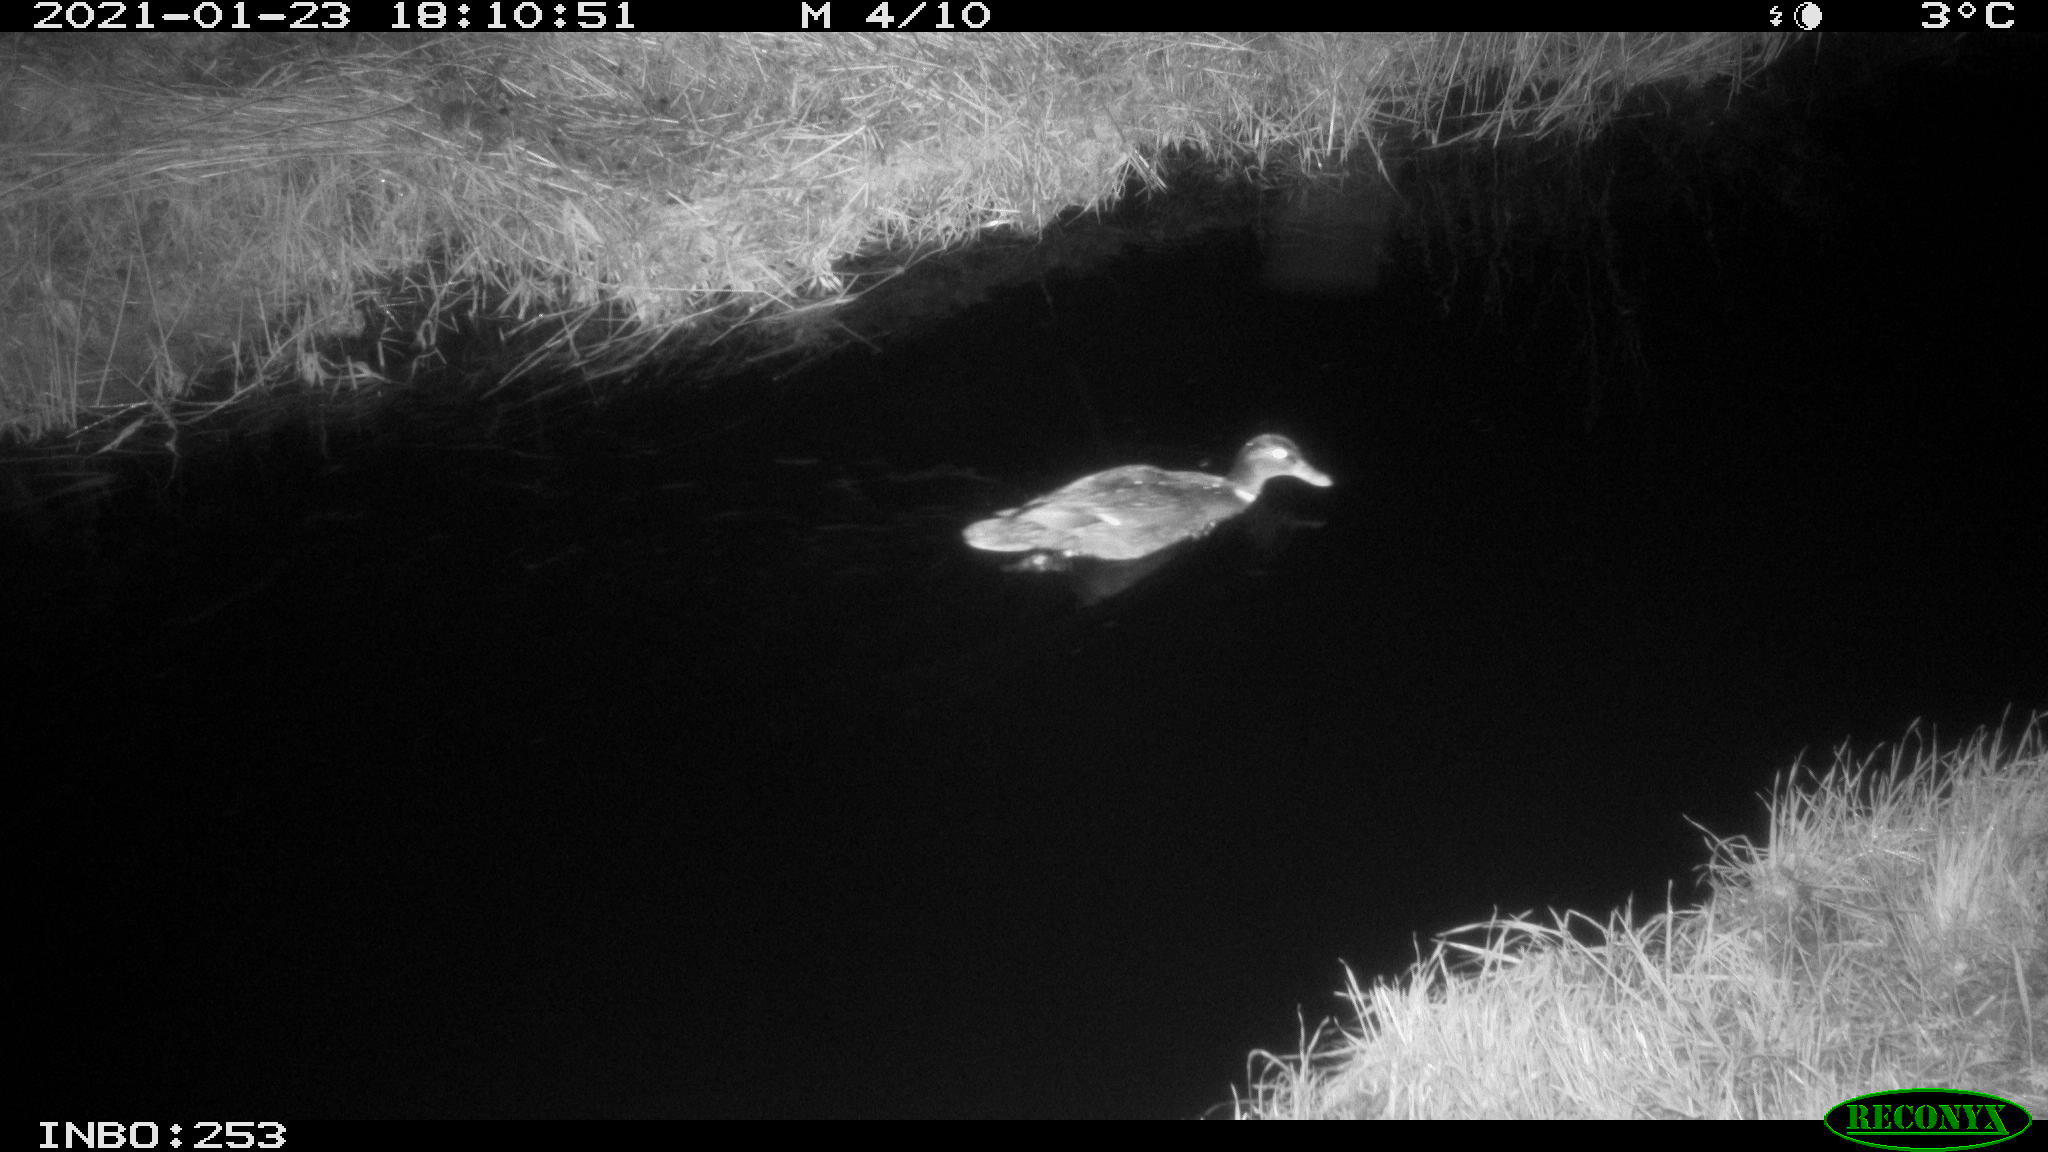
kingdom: Animalia
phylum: Chordata
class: Aves
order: Anseriformes
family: Anatidae
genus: Anas
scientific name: Anas platyrhynchos
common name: Mallard
